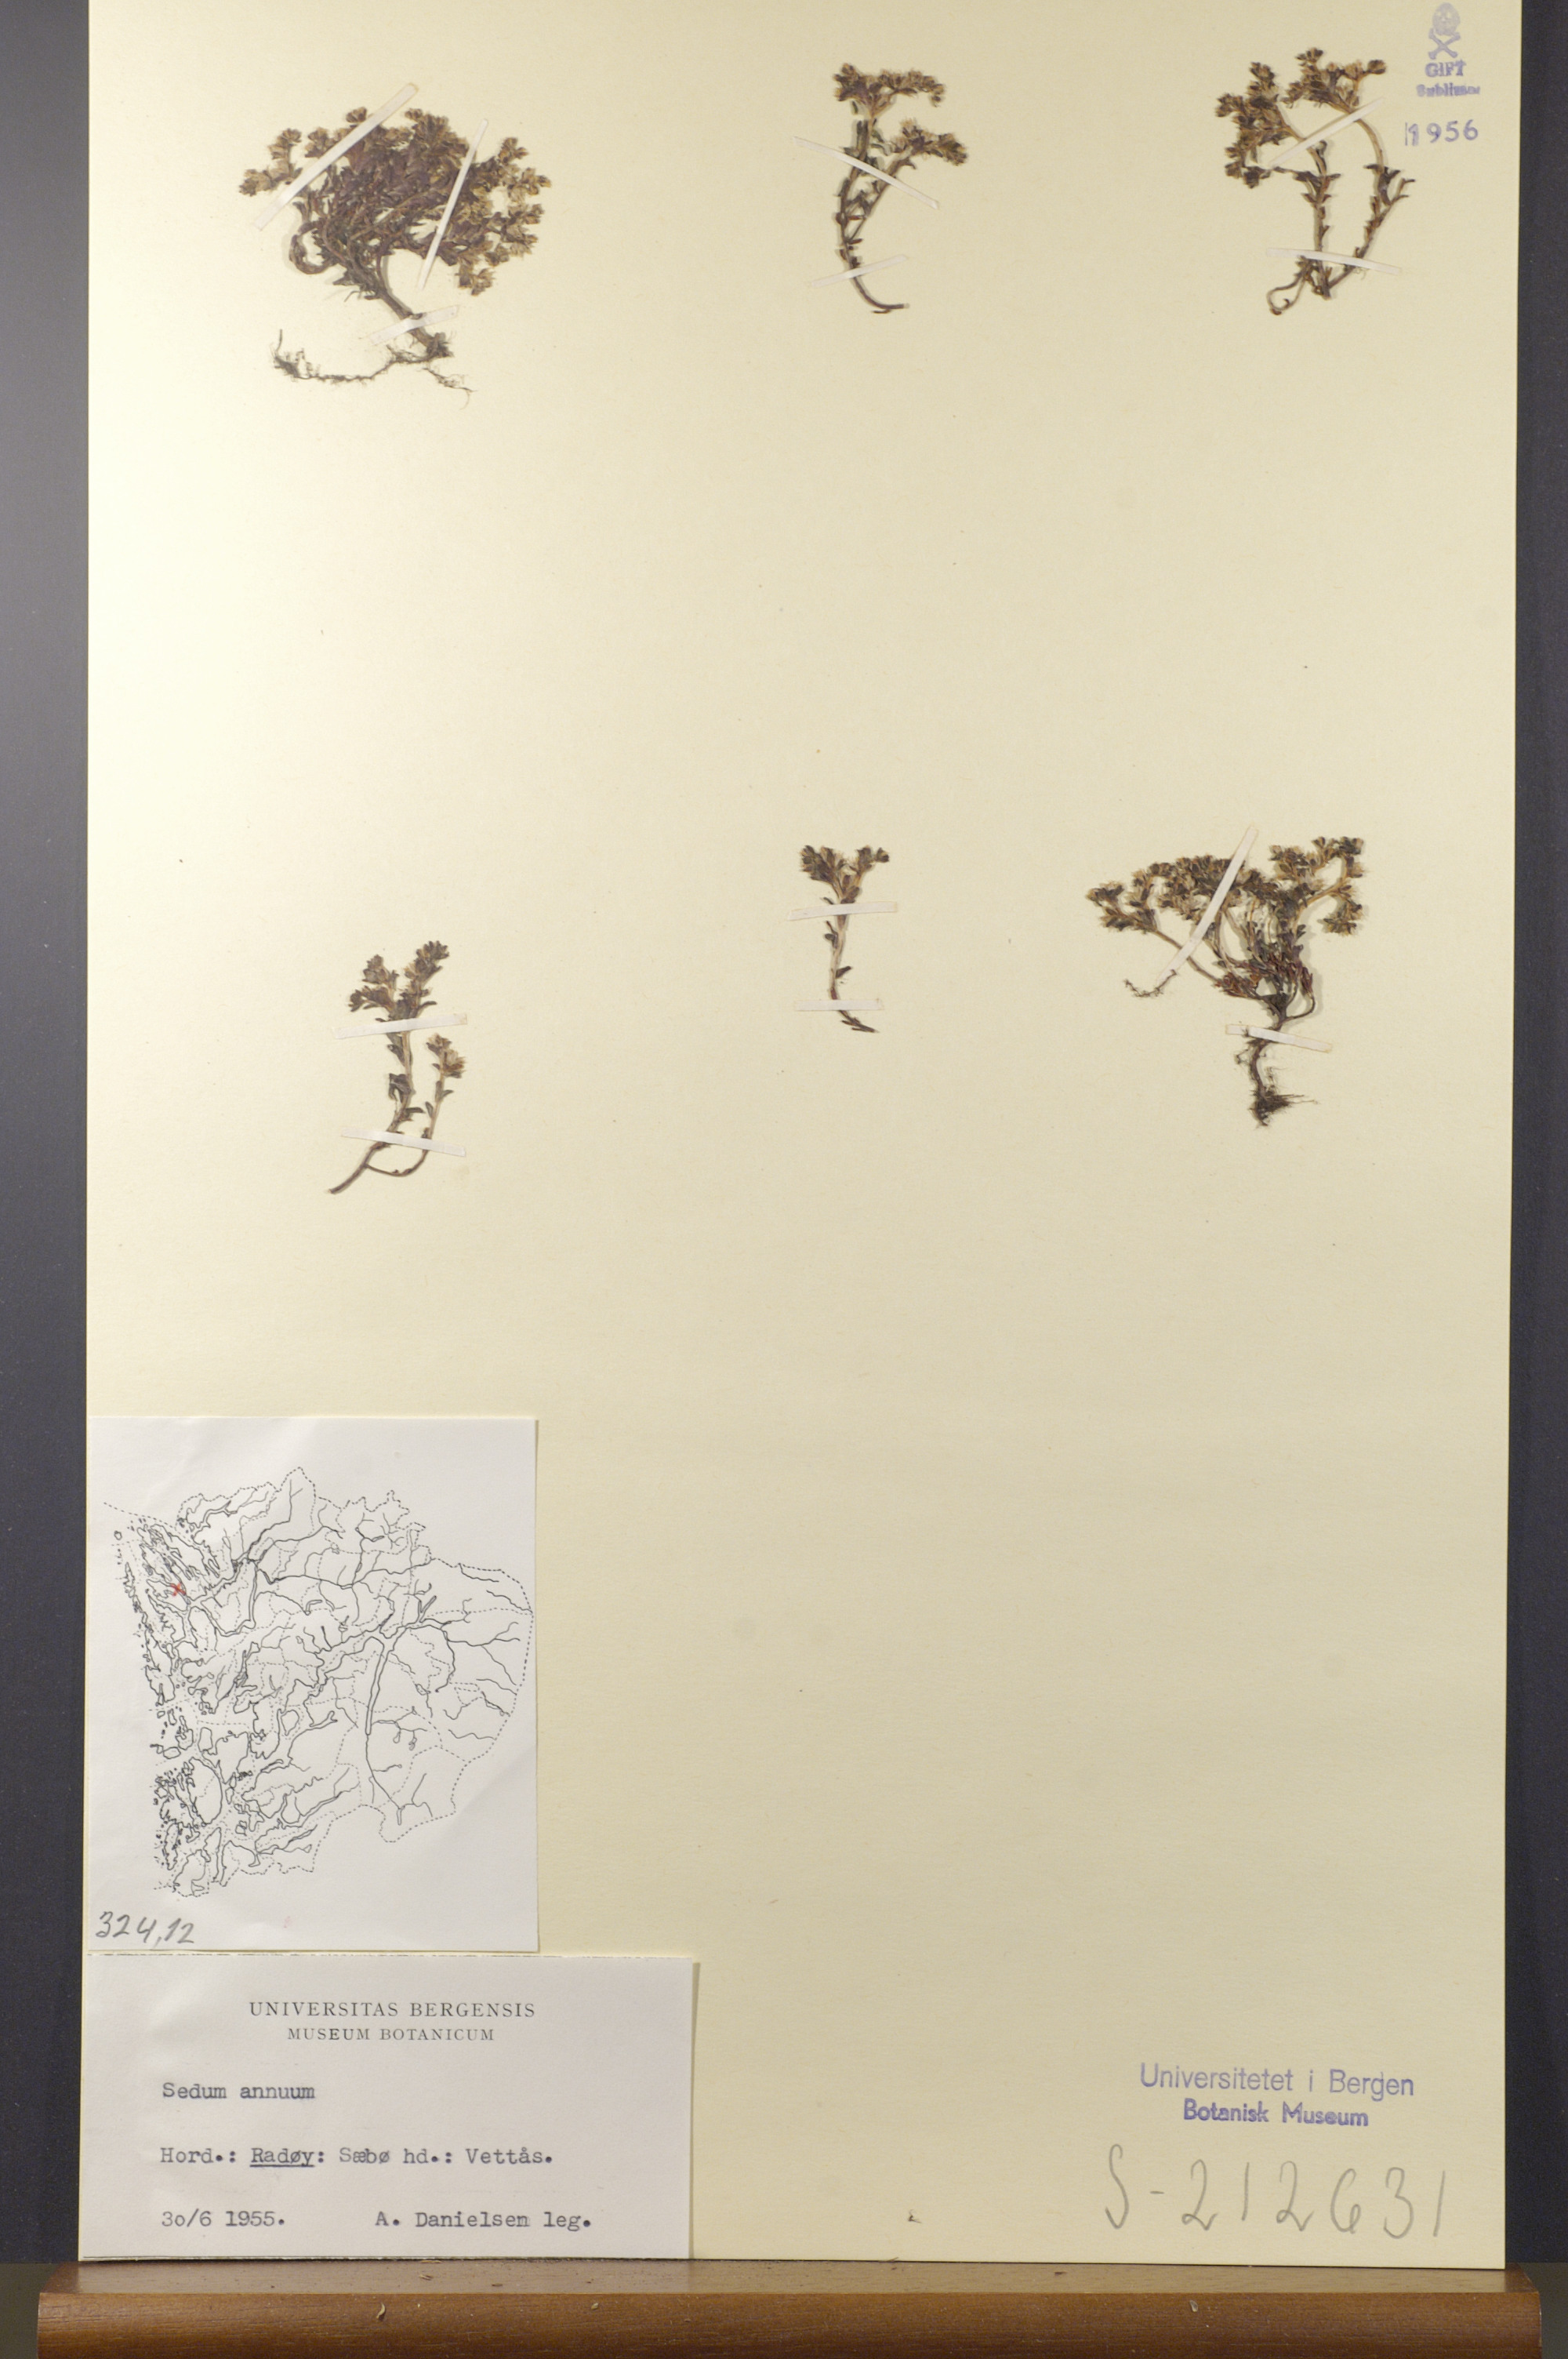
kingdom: Plantae
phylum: Tracheophyta
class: Magnoliopsida
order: Saxifragales
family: Crassulaceae
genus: Sedum
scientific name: Sedum annuum
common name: Annual stonecrop
